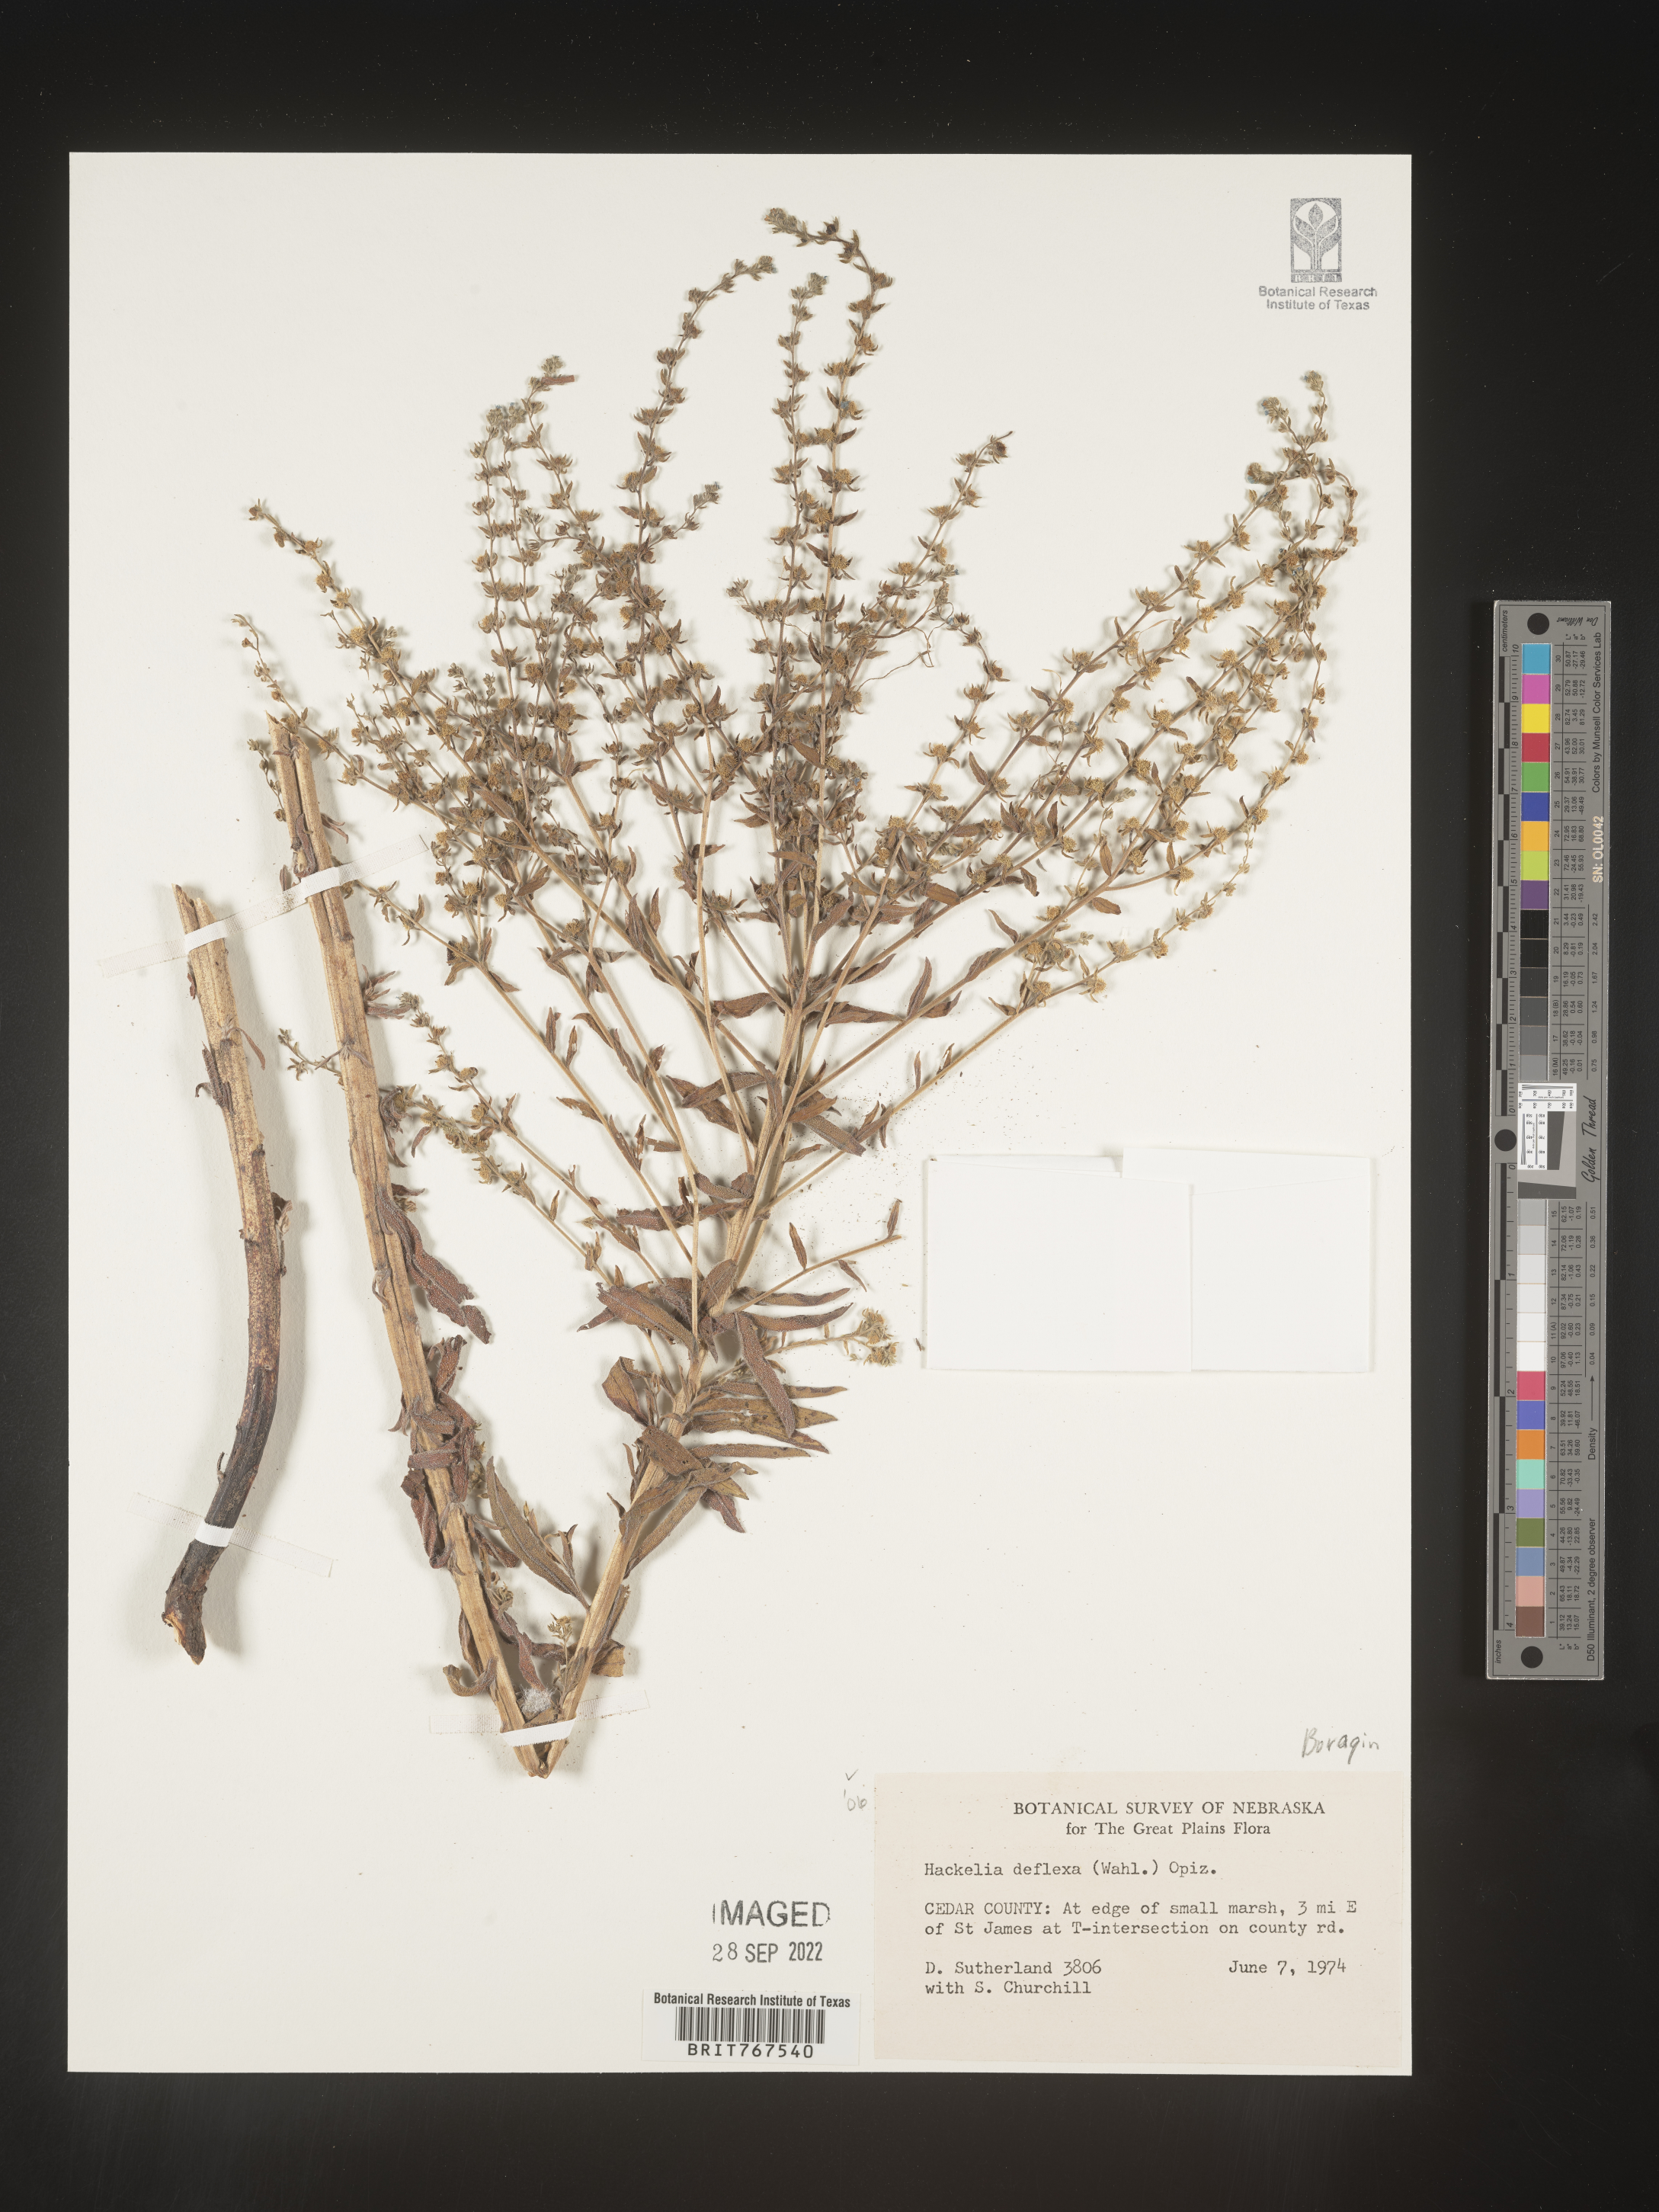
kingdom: Plantae
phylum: Tracheophyta
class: Magnoliopsida
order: Boraginales
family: Boraginaceae
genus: Hackelia
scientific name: Hackelia
